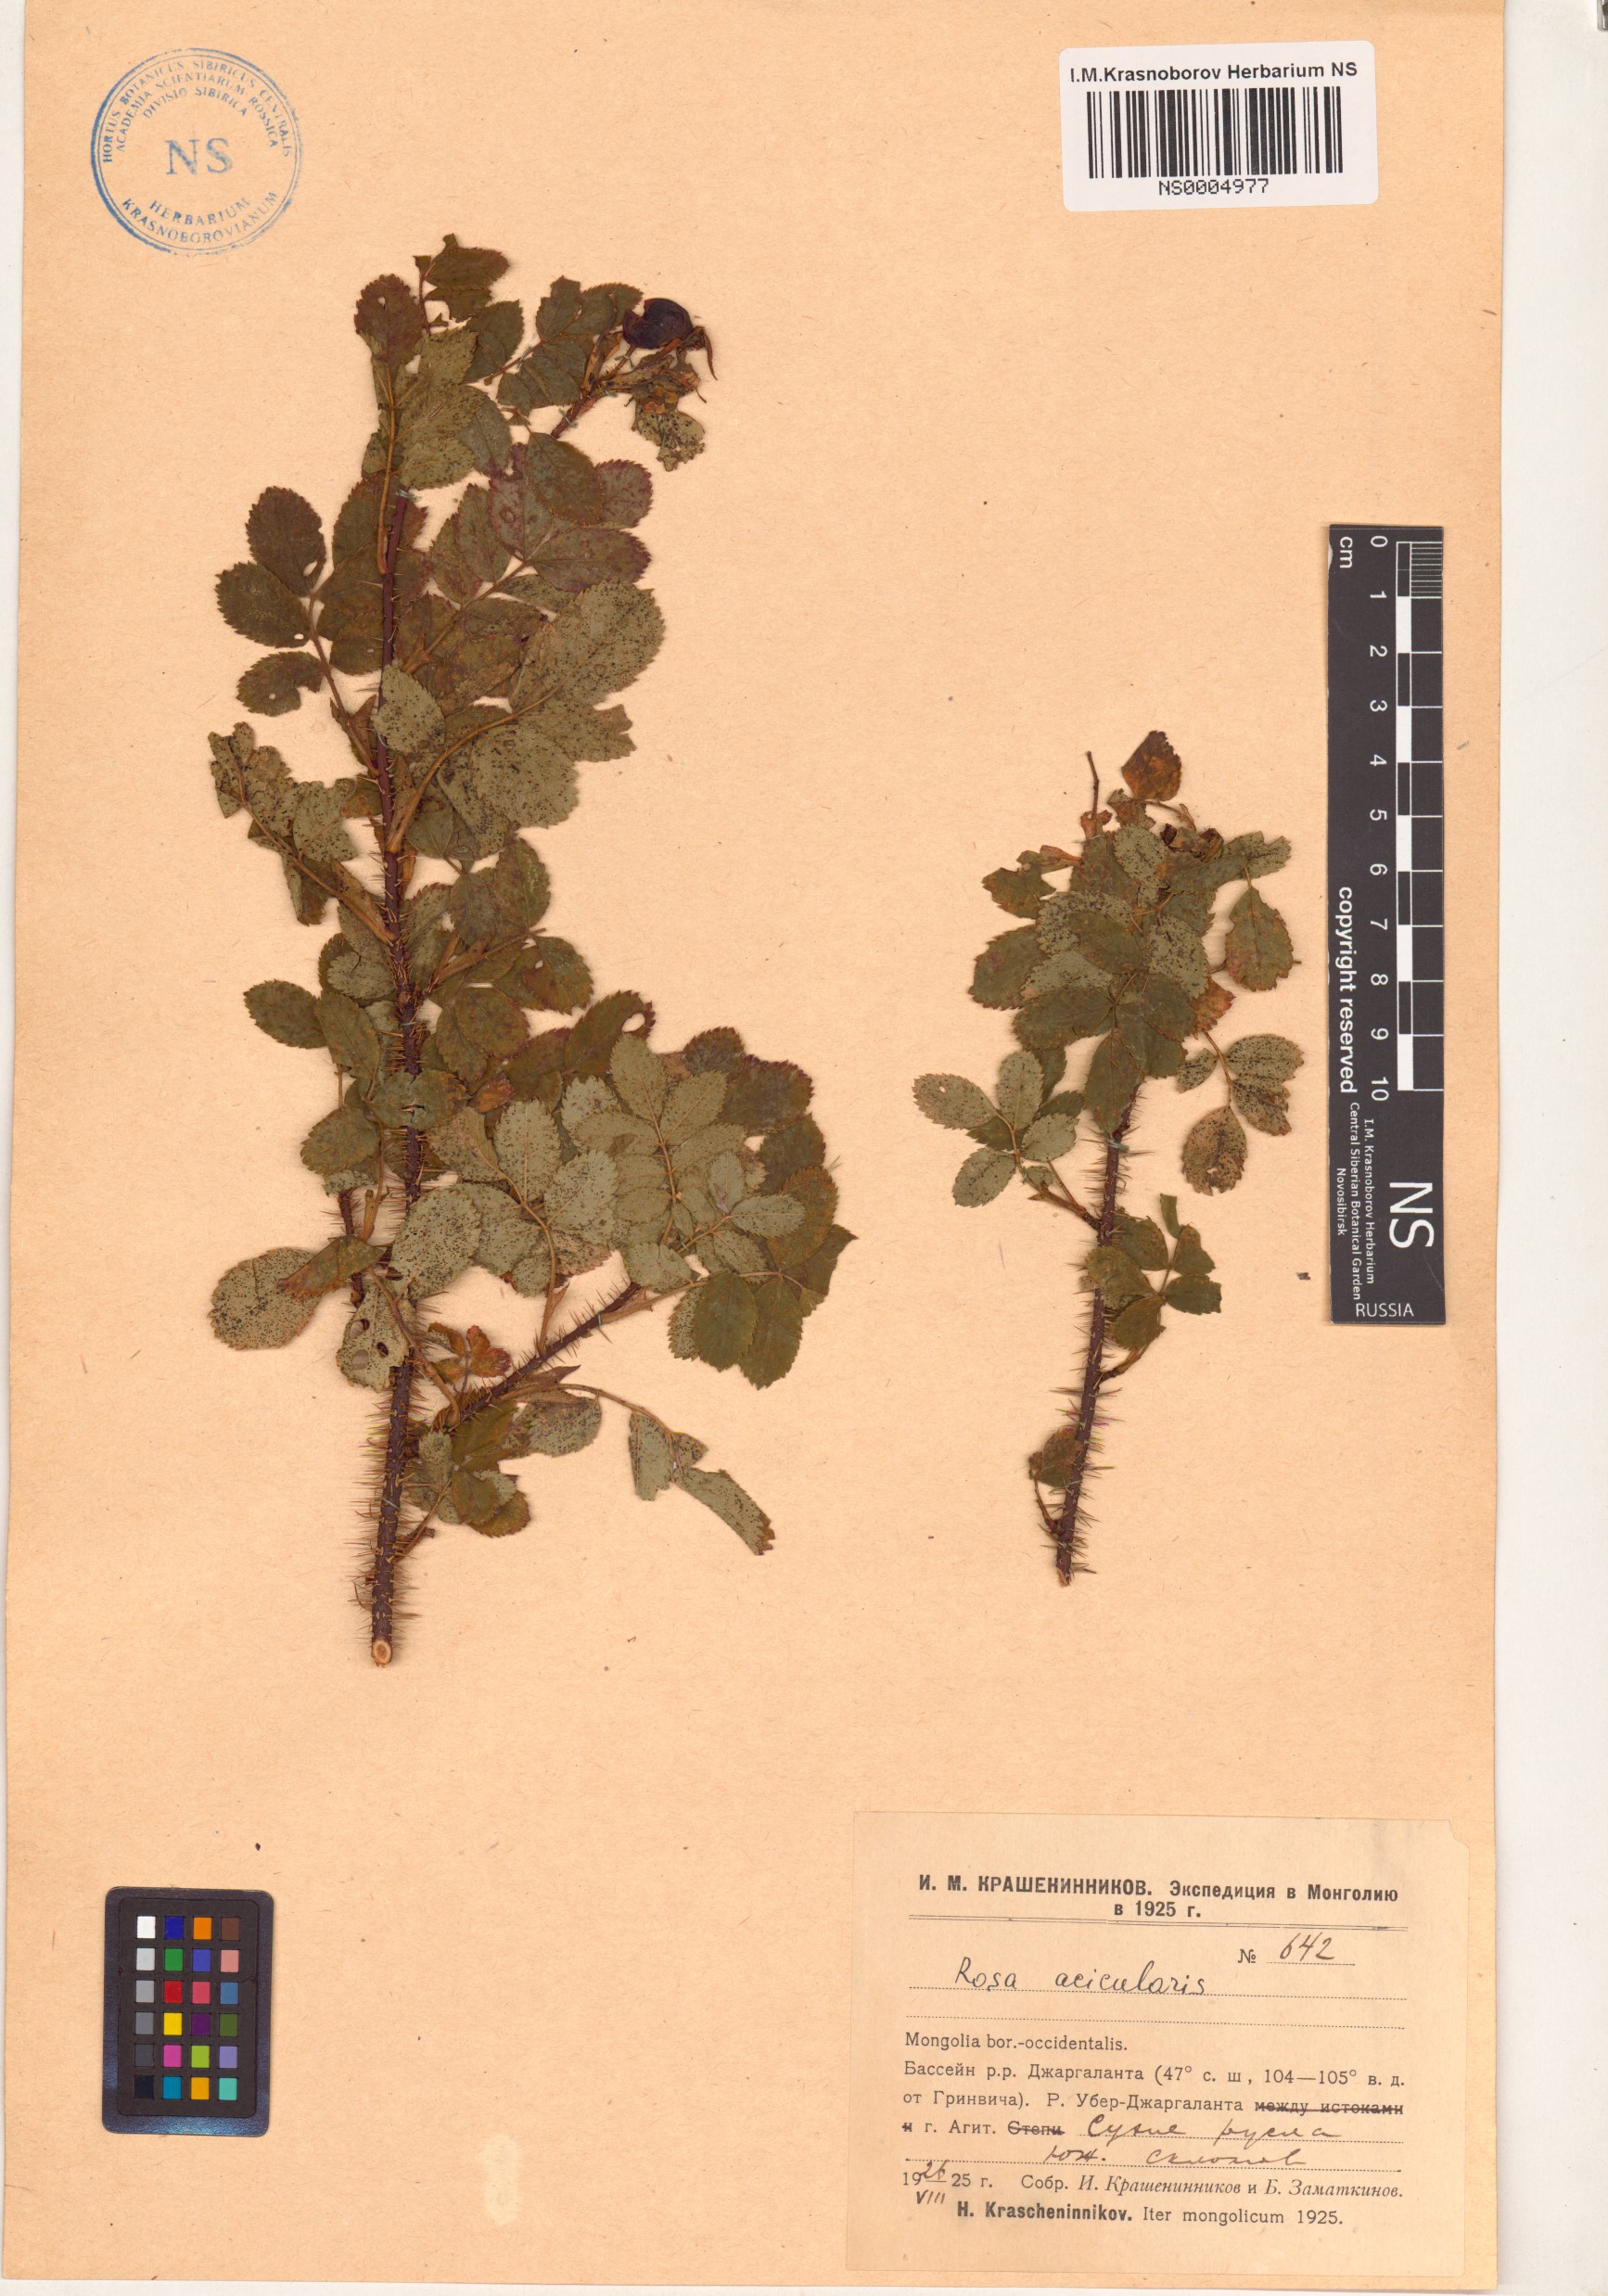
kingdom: Plantae
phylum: Tracheophyta
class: Magnoliopsida
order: Rosales
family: Rosaceae
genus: Rosa
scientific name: Rosa acicularis
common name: Prickly rose
